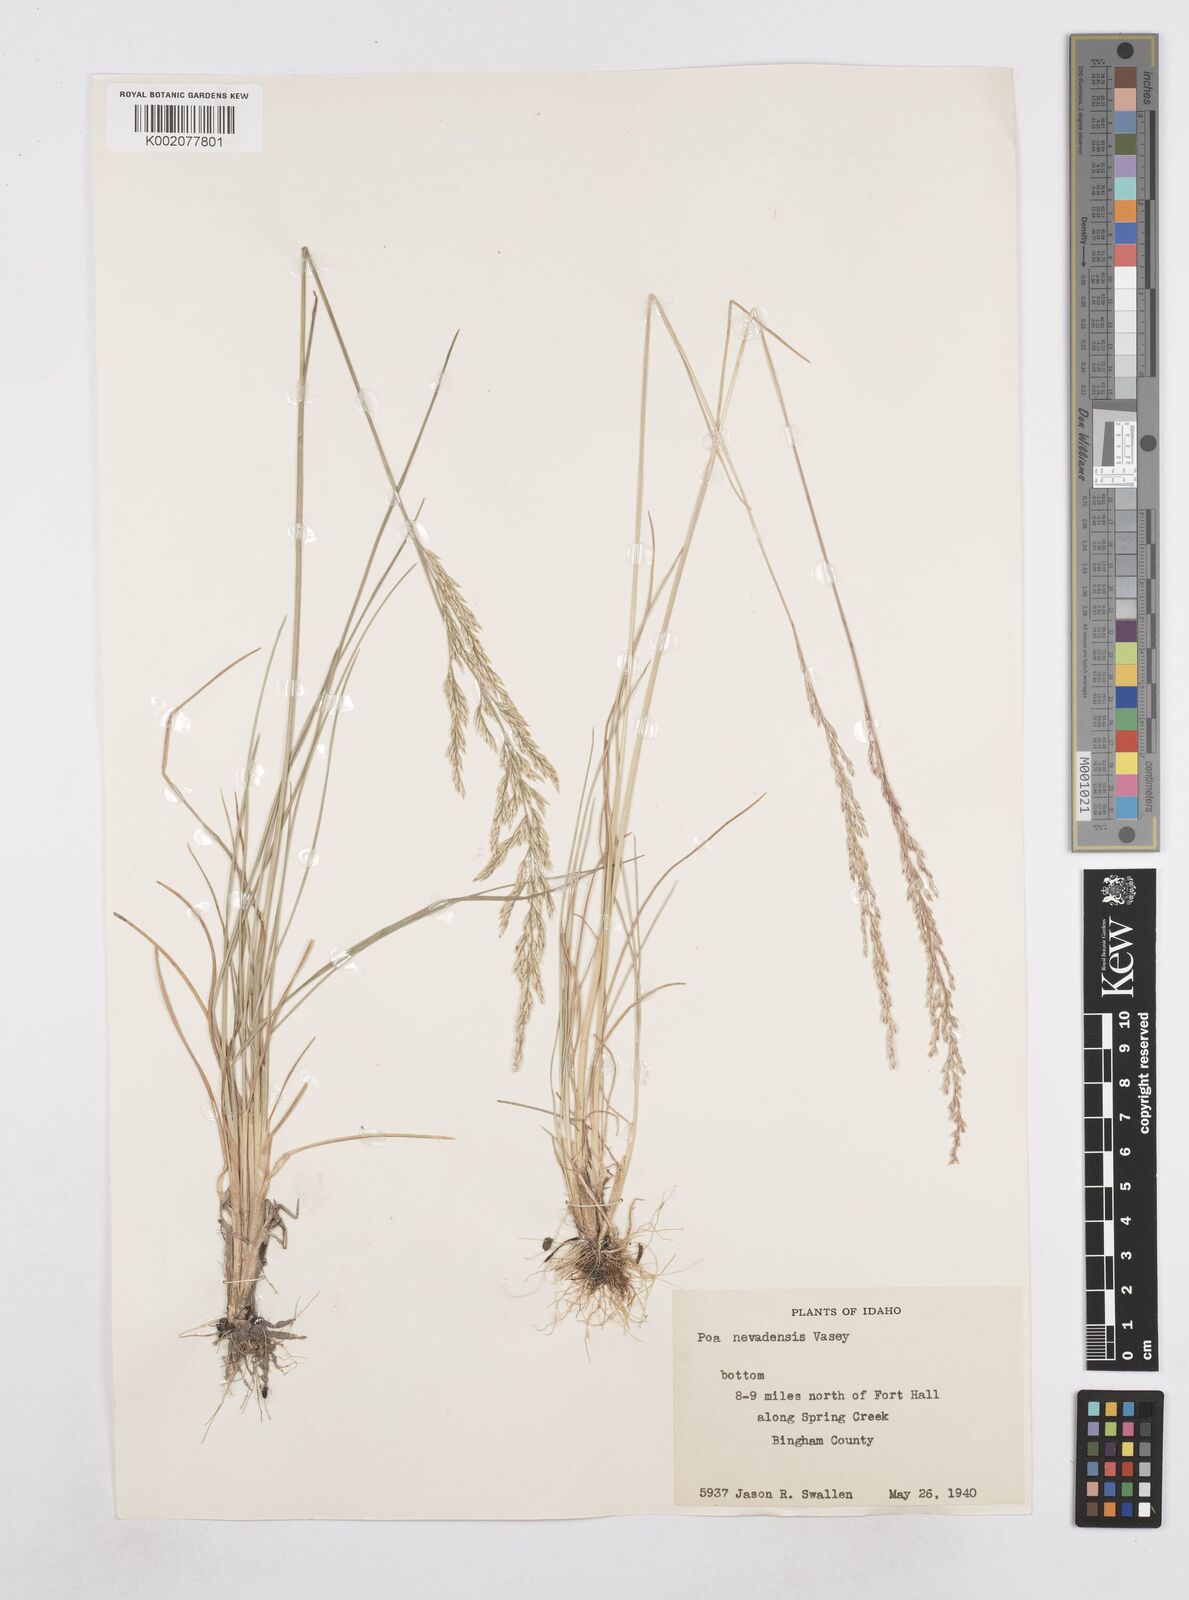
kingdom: Plantae
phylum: Tracheophyta
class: Liliopsida
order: Poales
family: Poaceae
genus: Poa
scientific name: Poa secunda
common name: Sandberg bluegrass
